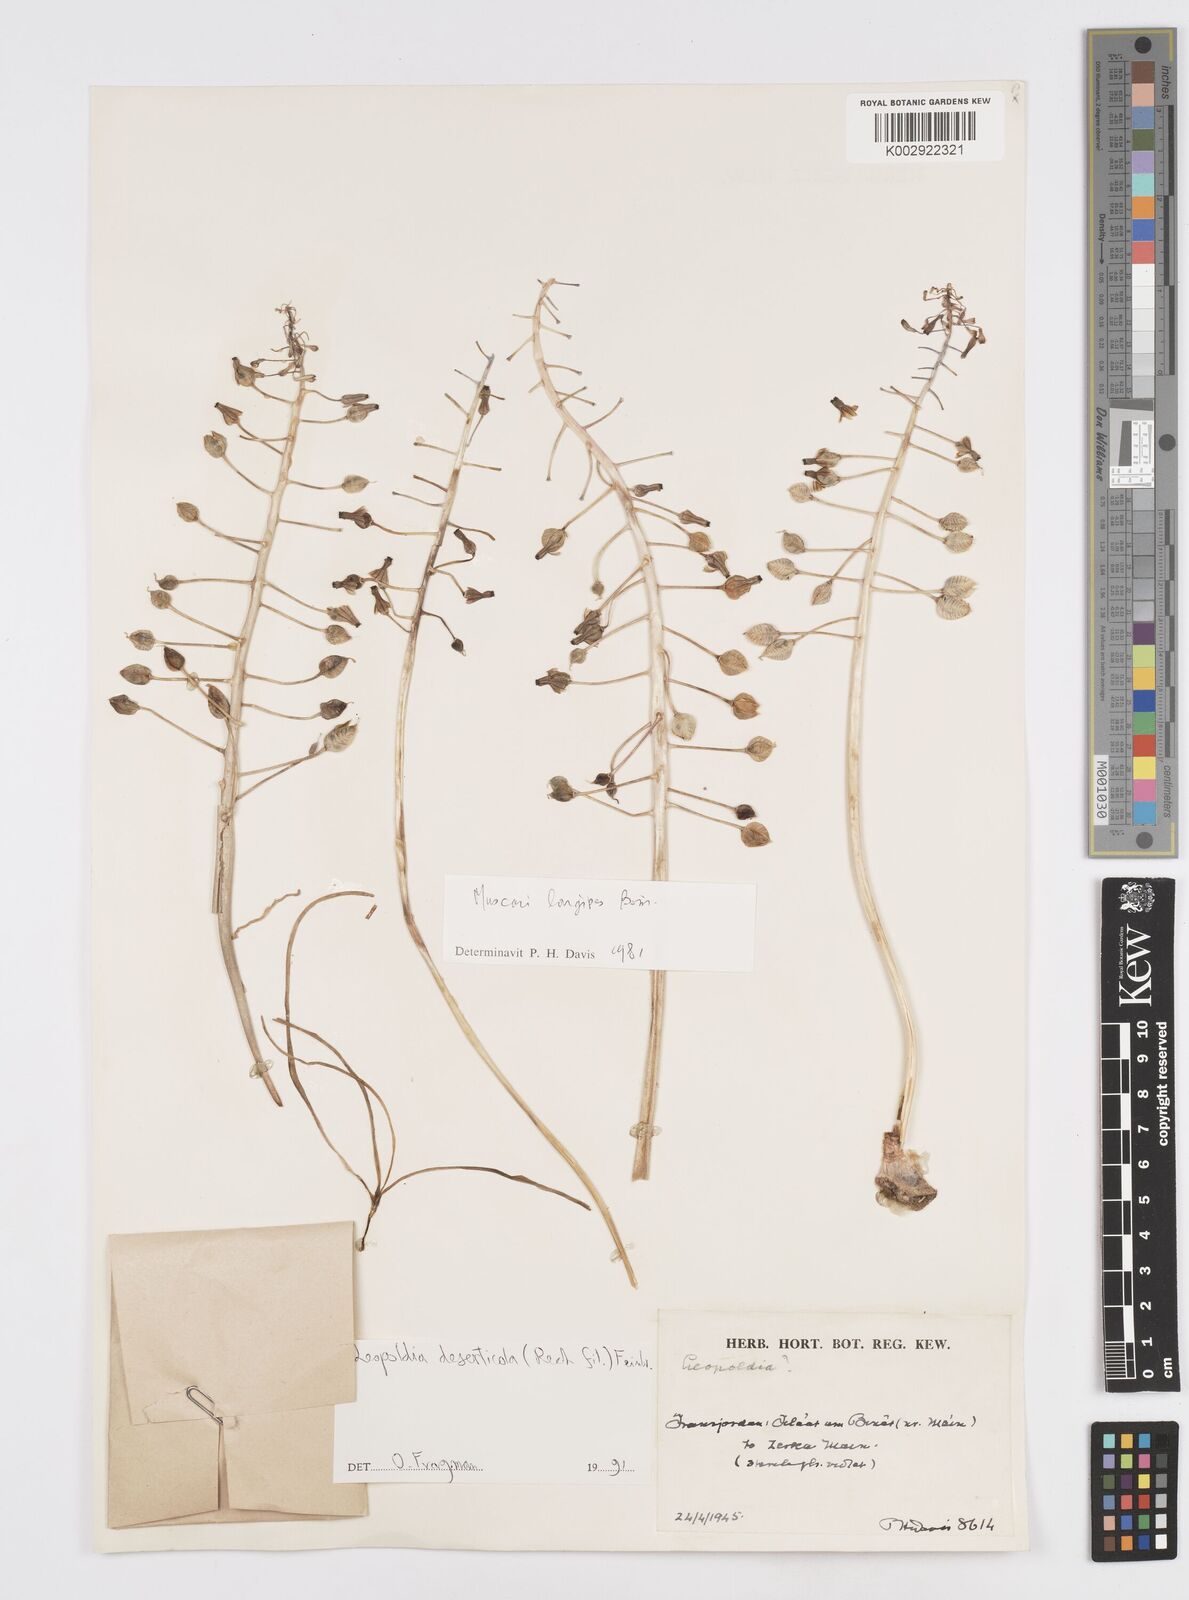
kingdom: Plantae
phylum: Tracheophyta
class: Liliopsida
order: Asparagales
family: Asparagaceae
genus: Muscari
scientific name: Muscari longipes
